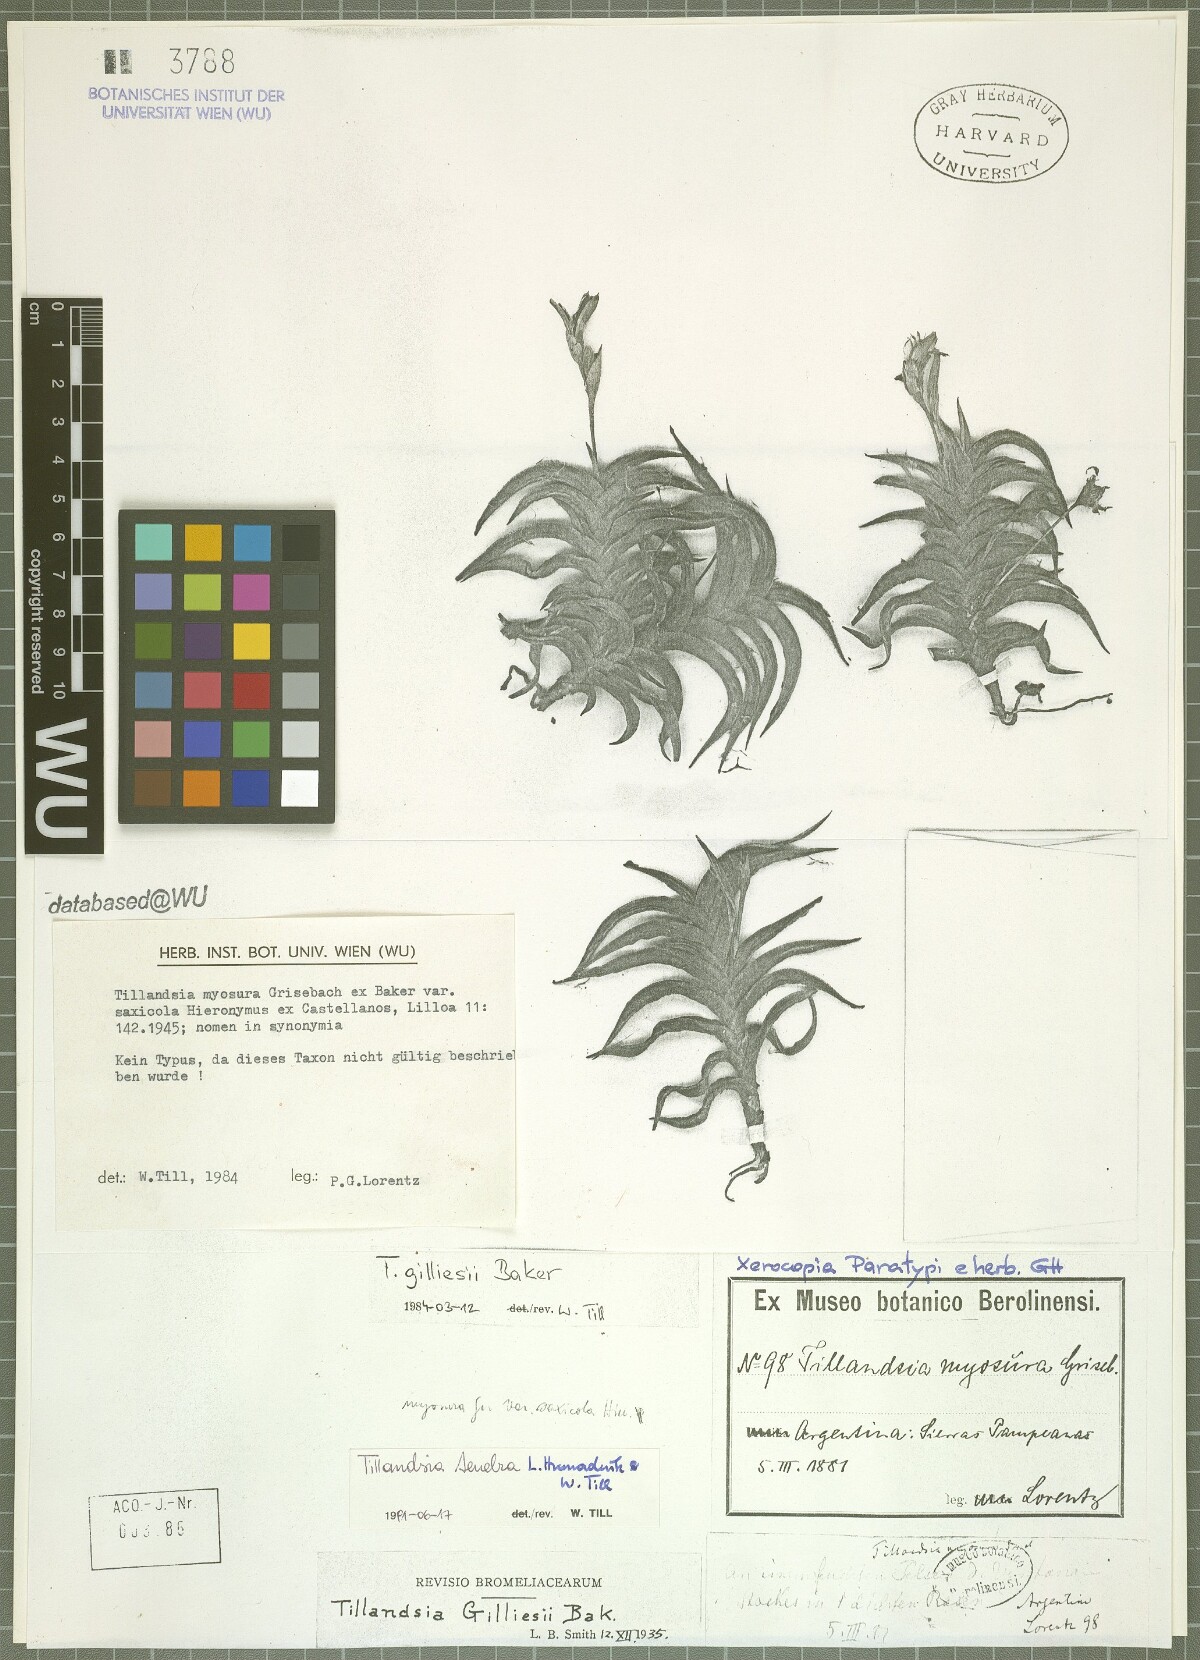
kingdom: Plantae
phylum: Tracheophyta
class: Liliopsida
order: Poales
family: Bromeliaceae
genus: Tillandsia
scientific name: Tillandsia tenebra
